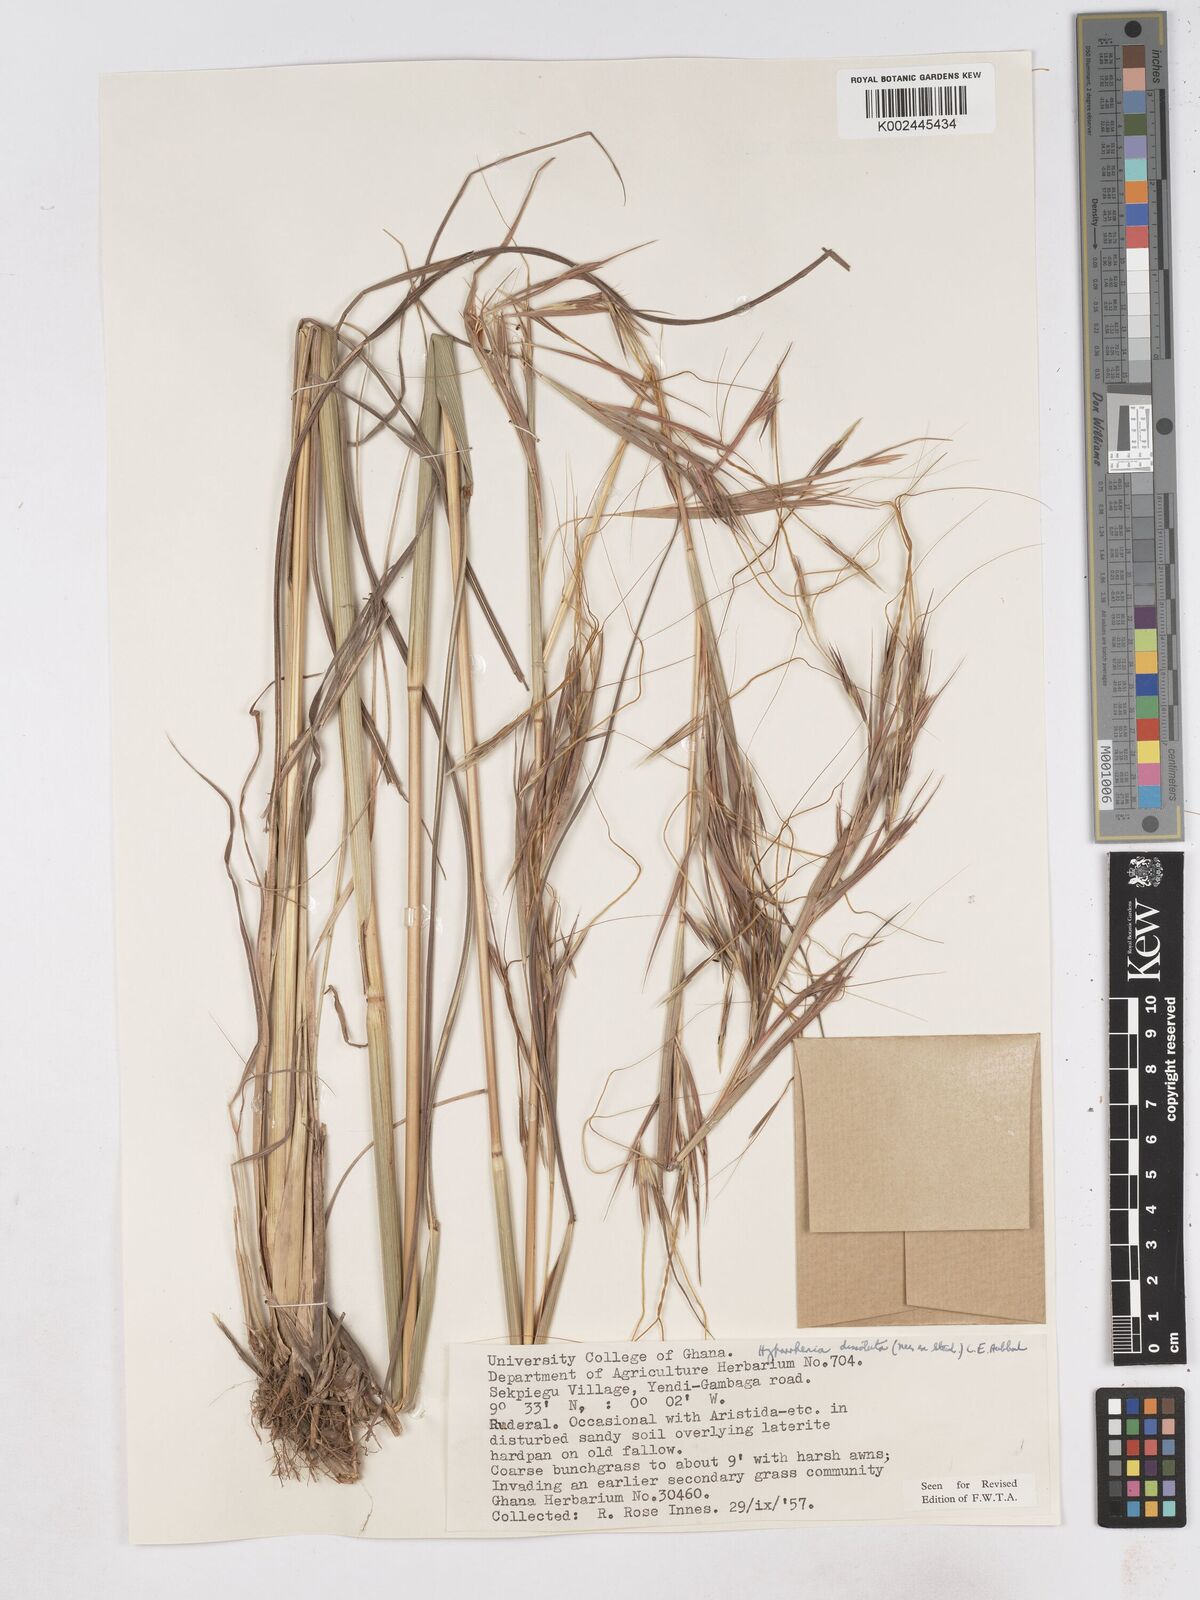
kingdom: Plantae
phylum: Tracheophyta
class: Liliopsida
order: Poales
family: Poaceae
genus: Hyperthelia
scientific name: Hyperthelia dissoluta
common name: Yellow thatching grass
